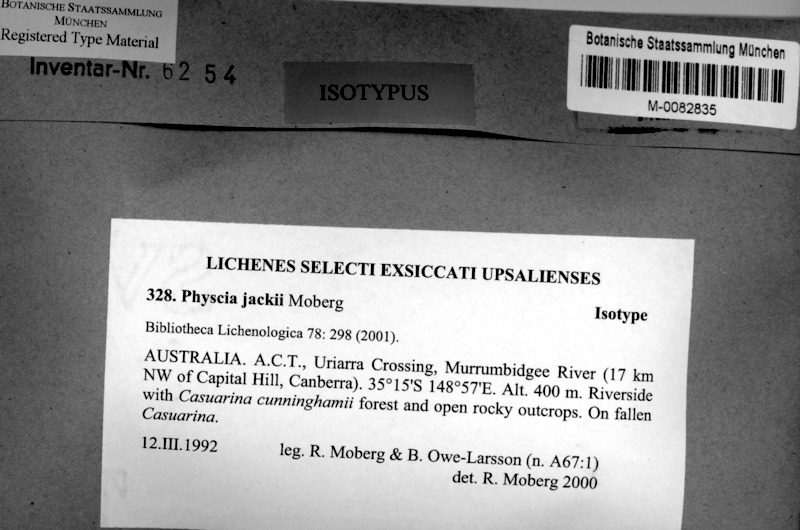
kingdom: Fungi
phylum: Ascomycota
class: Lecanoromycetes
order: Caliciales
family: Physciaceae
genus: Kashiwadia
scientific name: Kashiwadia jackii
